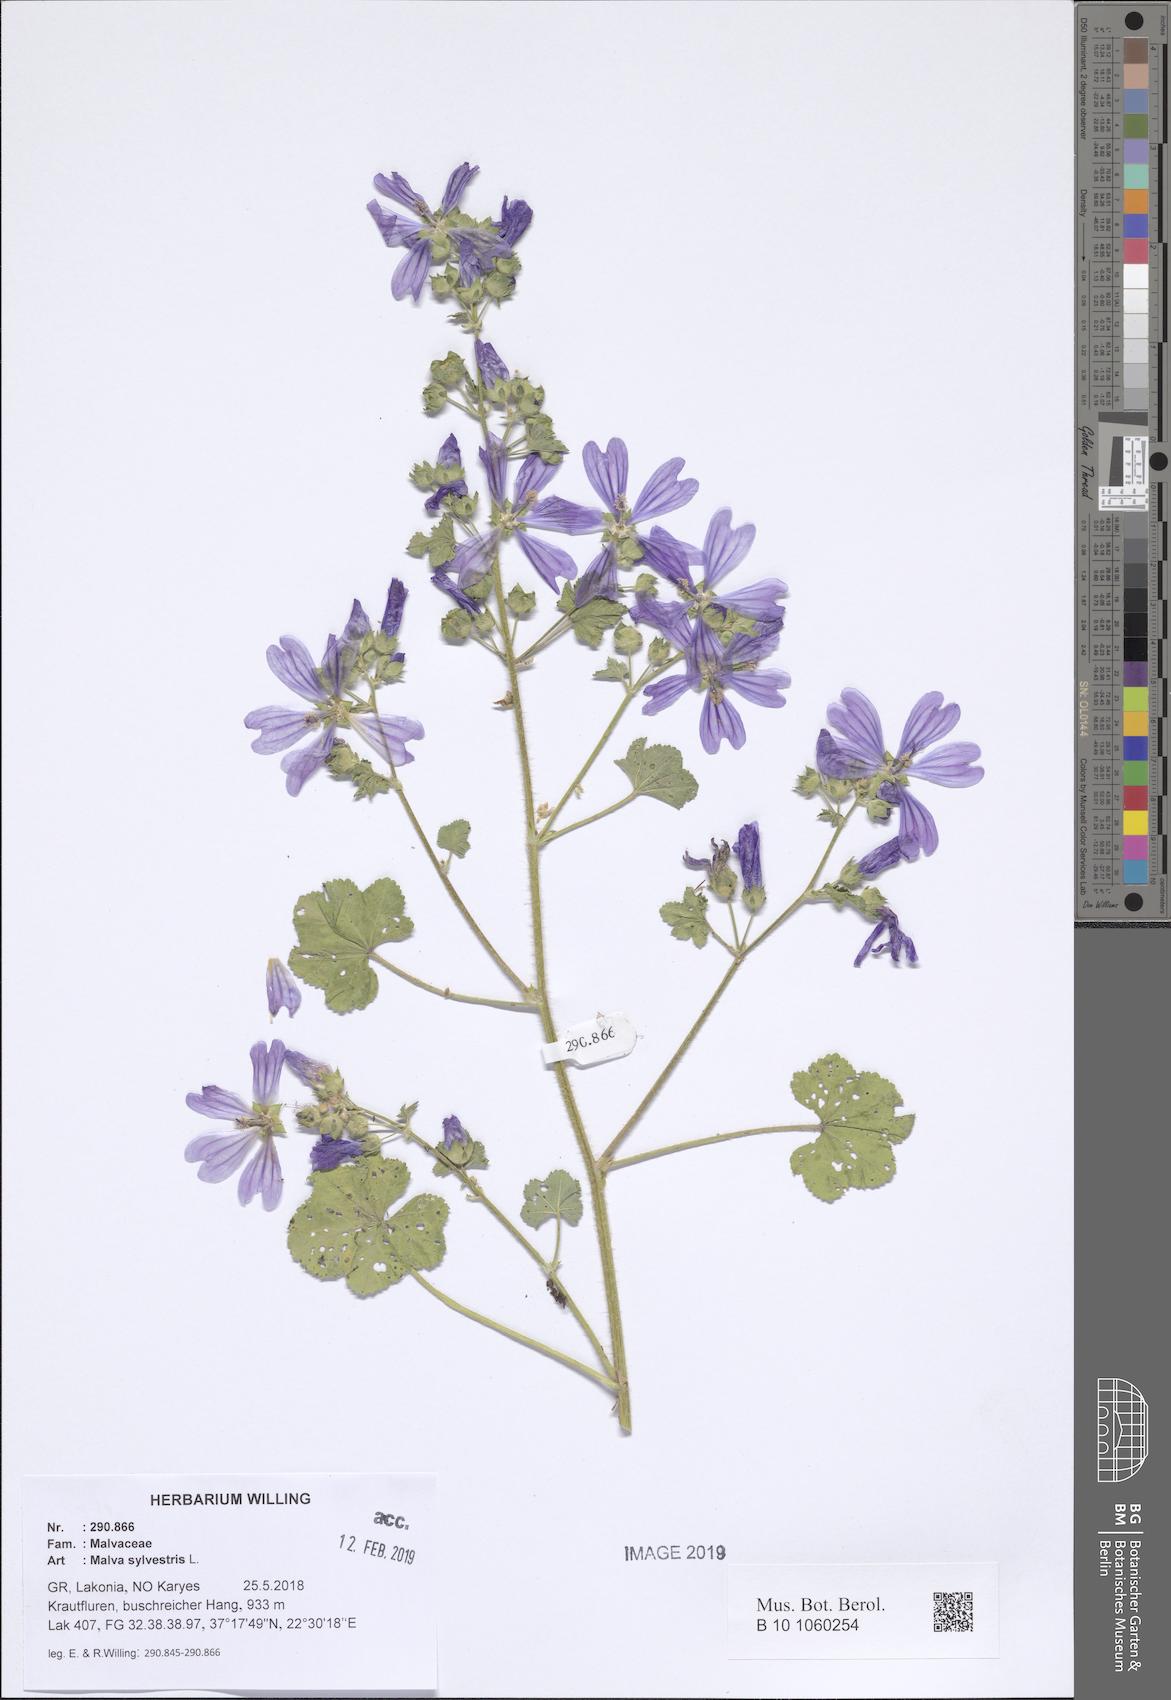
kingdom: Plantae
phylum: Tracheophyta
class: Magnoliopsida
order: Malvales
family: Malvaceae
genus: Malva
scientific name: Malva sylvestris
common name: Common mallow
